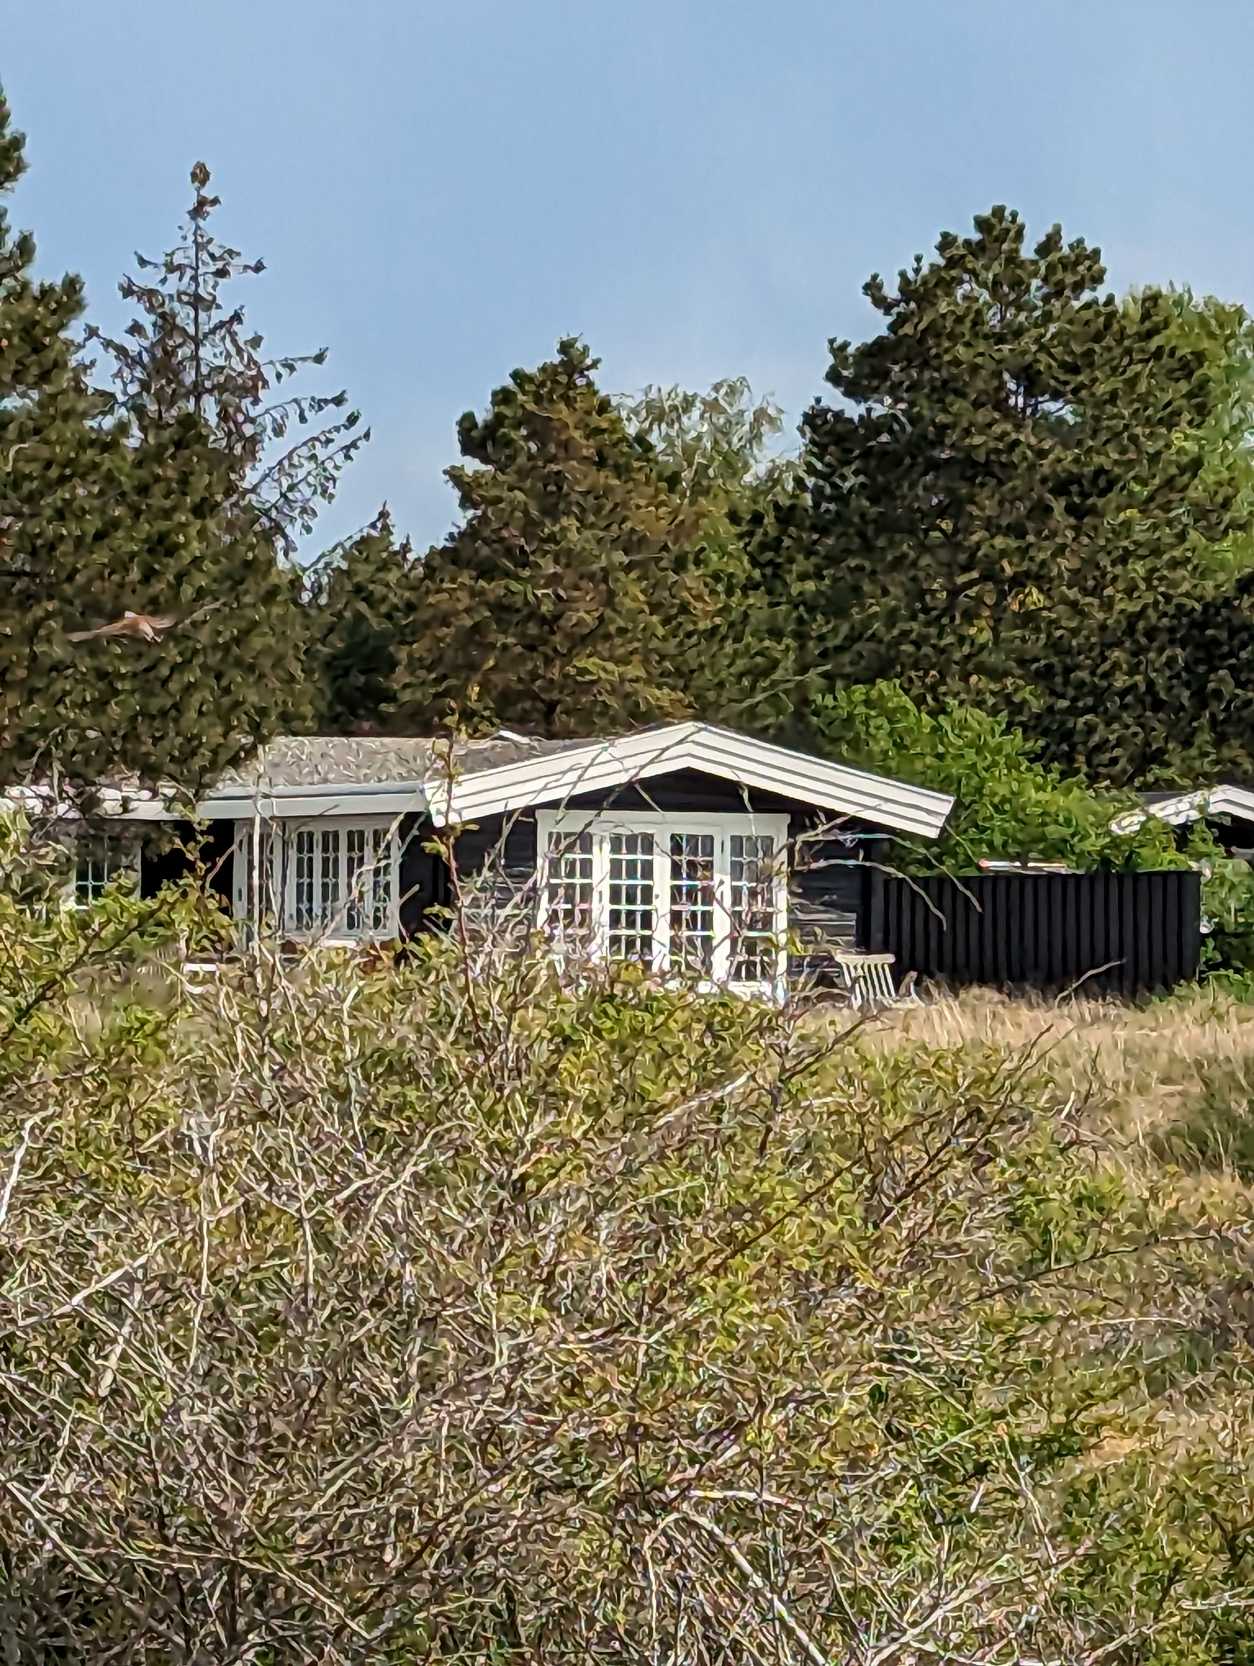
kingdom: Animalia
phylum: Chordata
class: Aves
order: Passeriformes
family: Laniidae
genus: Lanius
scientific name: Lanius collurio
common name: Rødrygget tornskade
